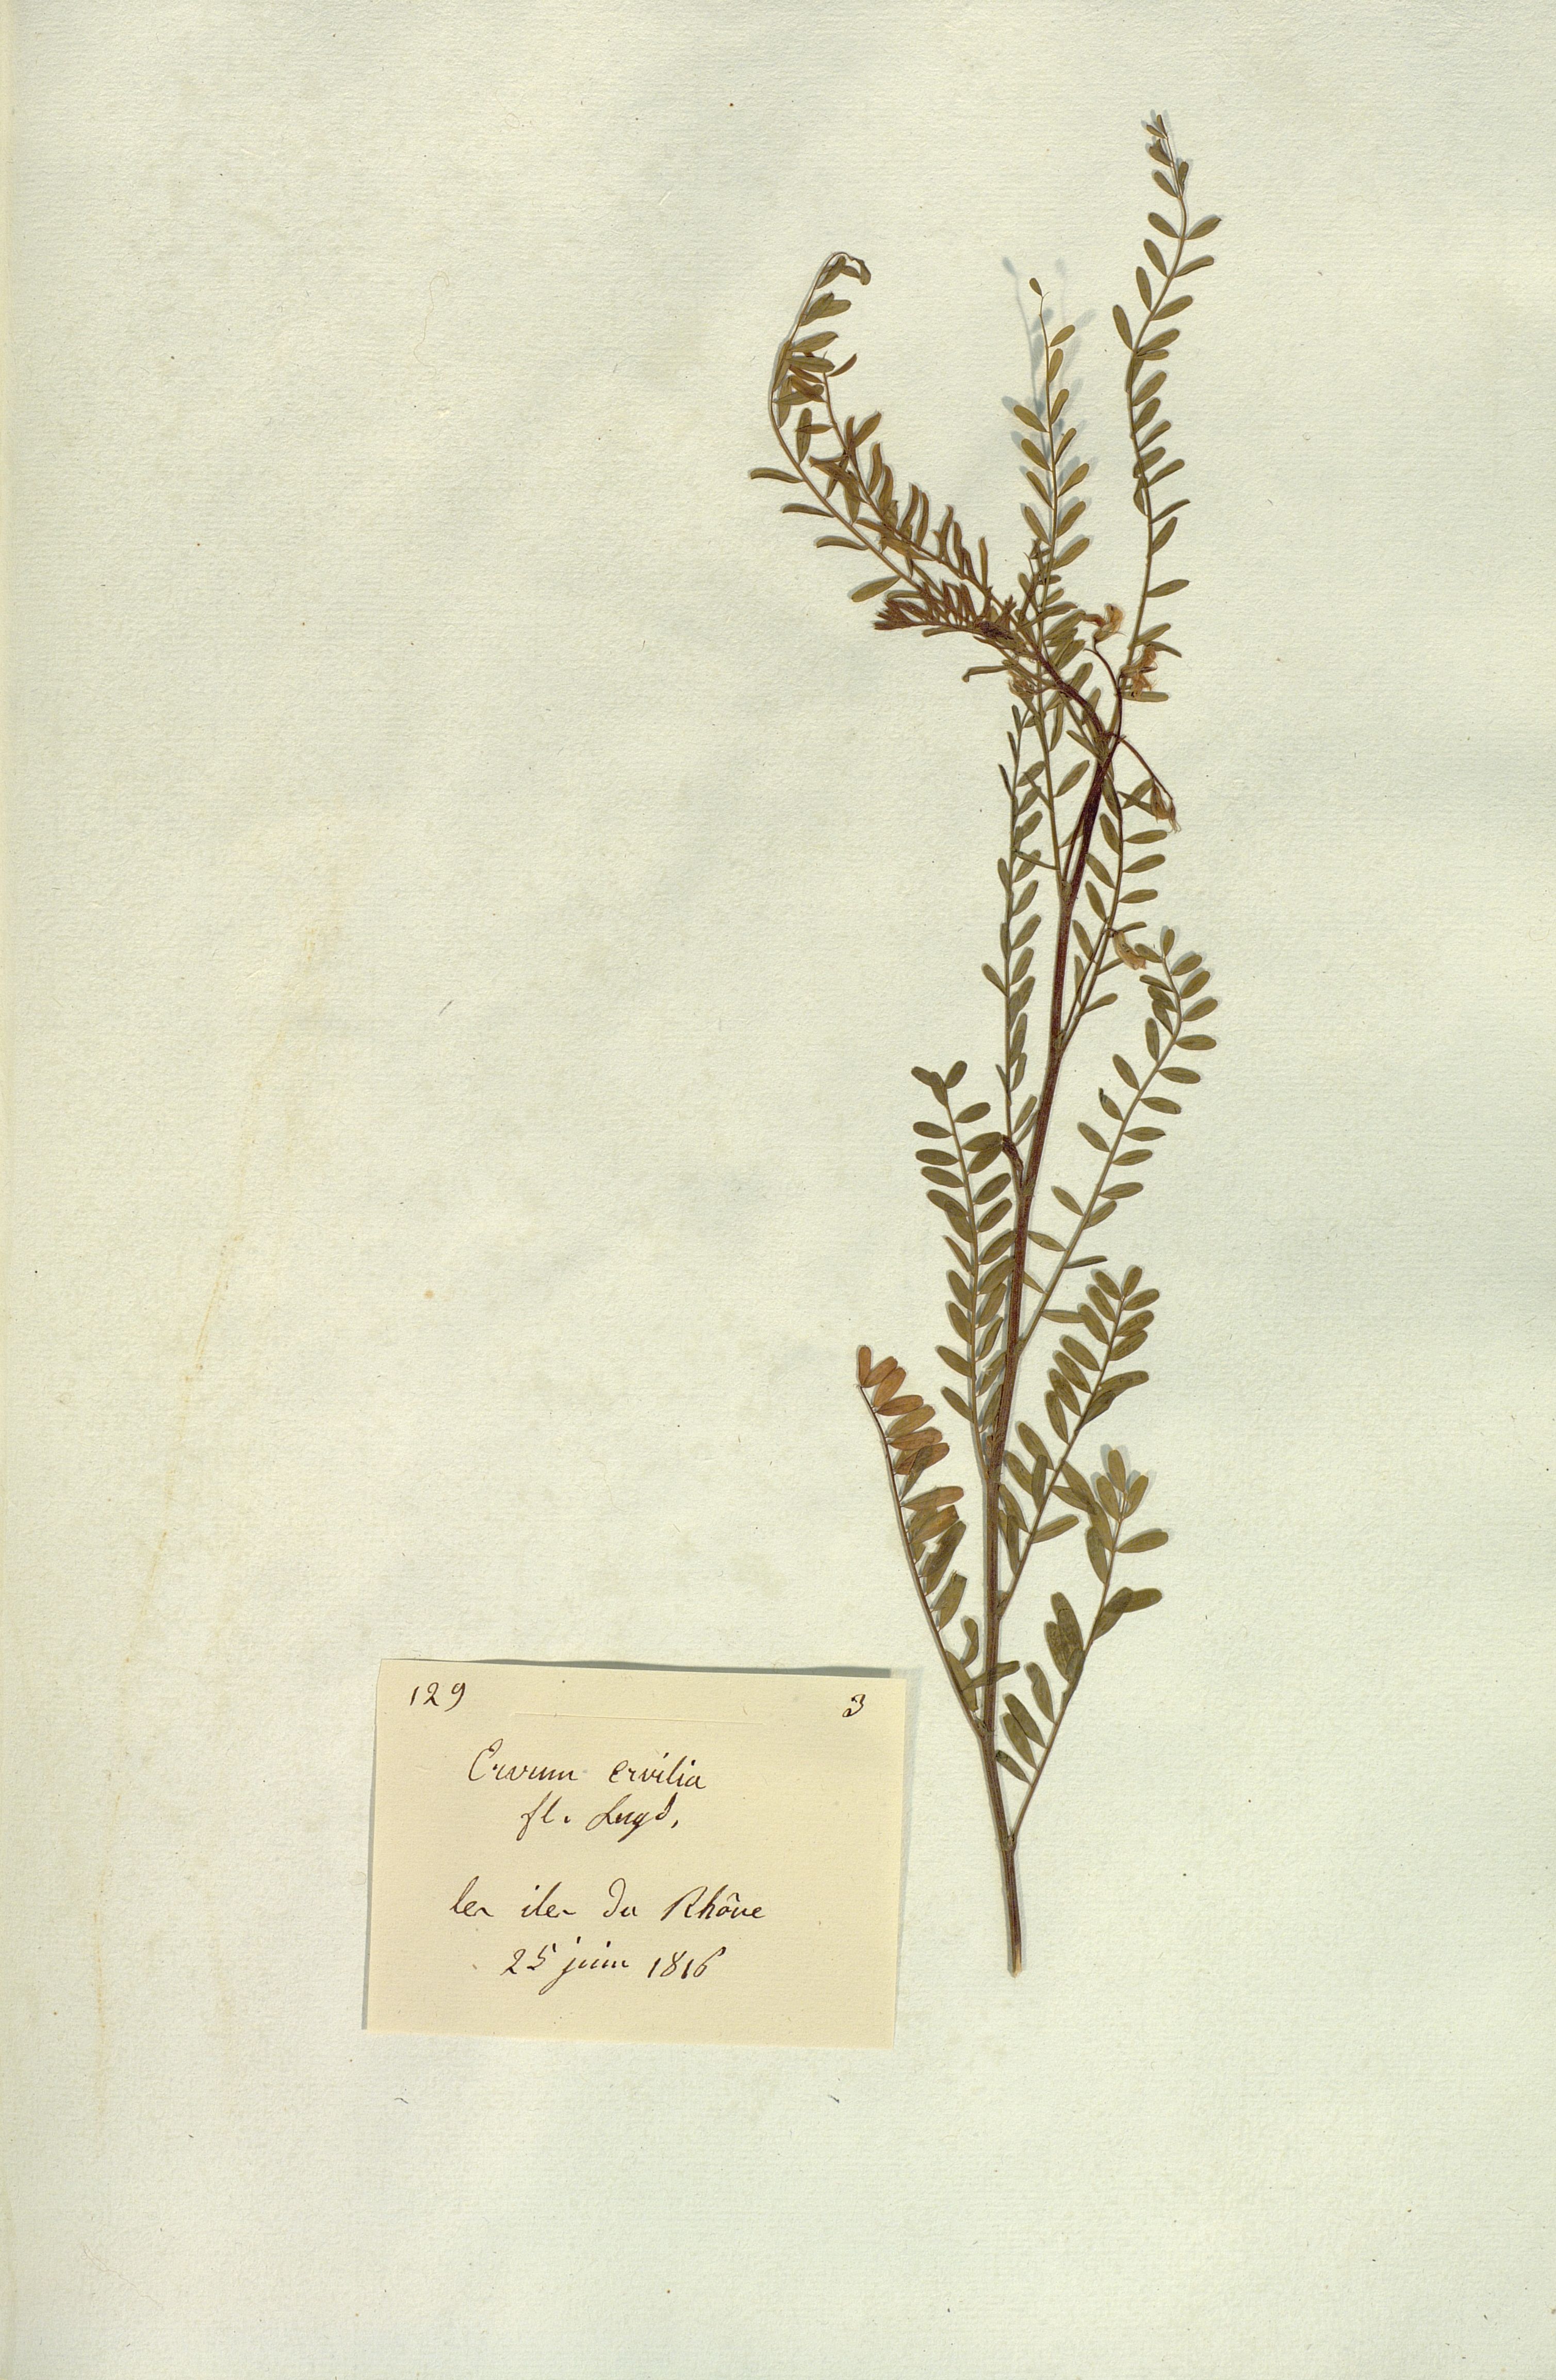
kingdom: Plantae
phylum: Tracheophyta
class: Magnoliopsida
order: Fabales
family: Fabaceae
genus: Vicia
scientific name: Vicia ervilia
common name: Bitter vetch
